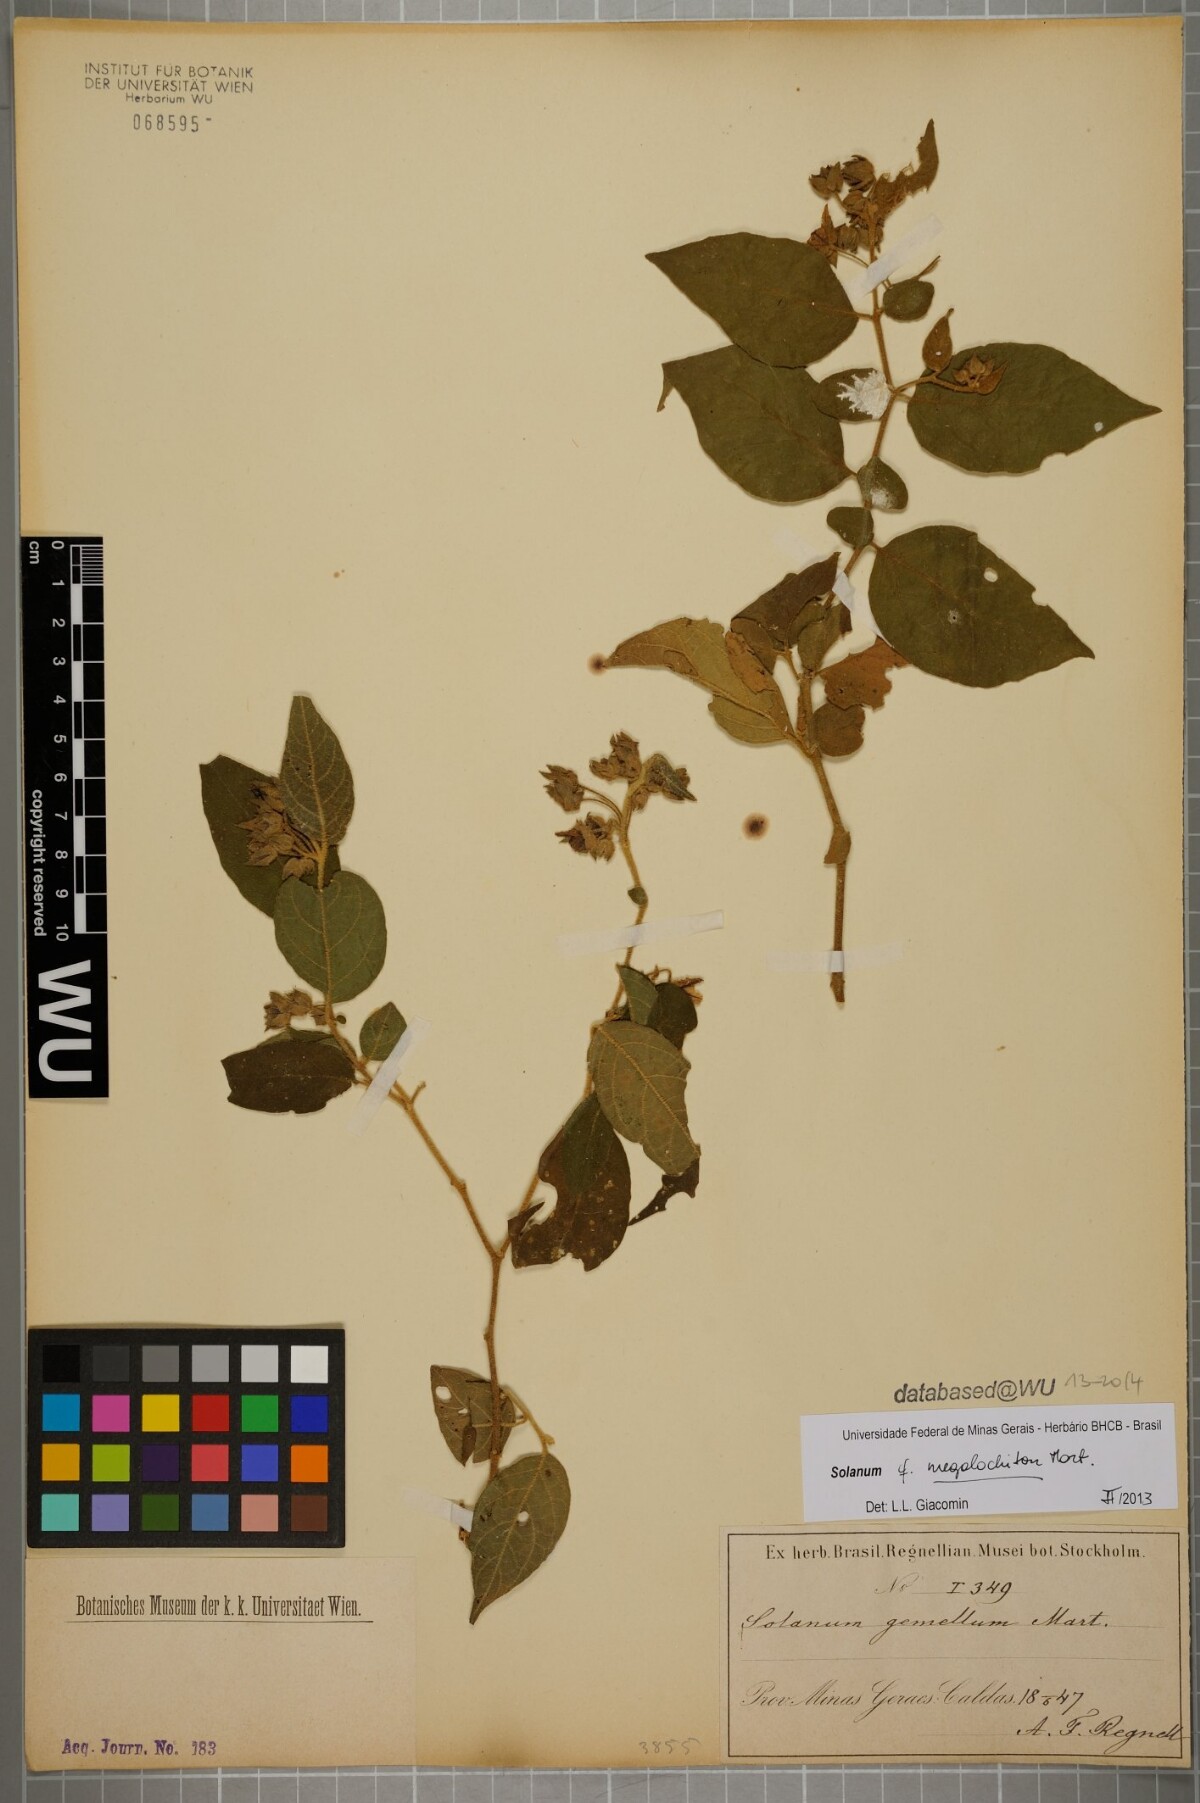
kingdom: Plantae
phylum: Tracheophyta
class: Magnoliopsida
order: Solanales
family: Solanaceae
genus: Solanum
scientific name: Solanum didymum
